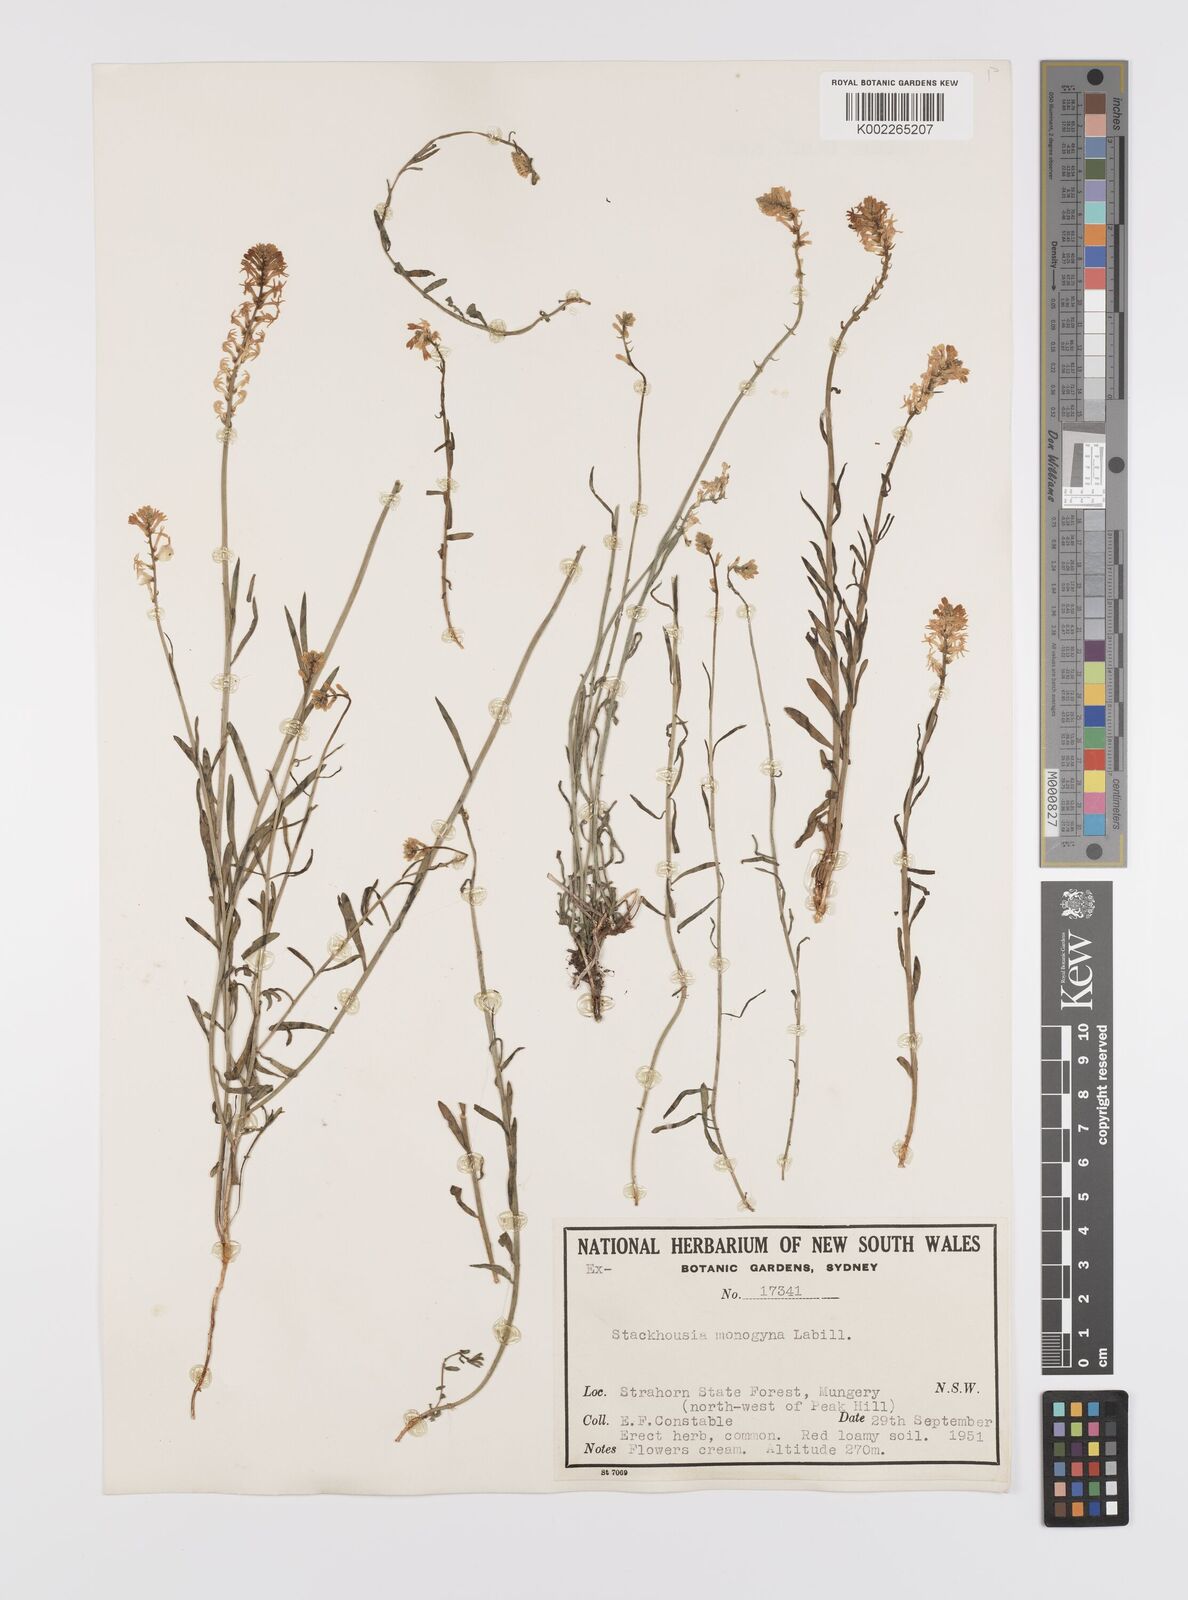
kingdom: Plantae
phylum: Tracheophyta
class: Magnoliopsida
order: Celastrales
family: Celastraceae
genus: Stackhousia
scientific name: Stackhousia monogyna
